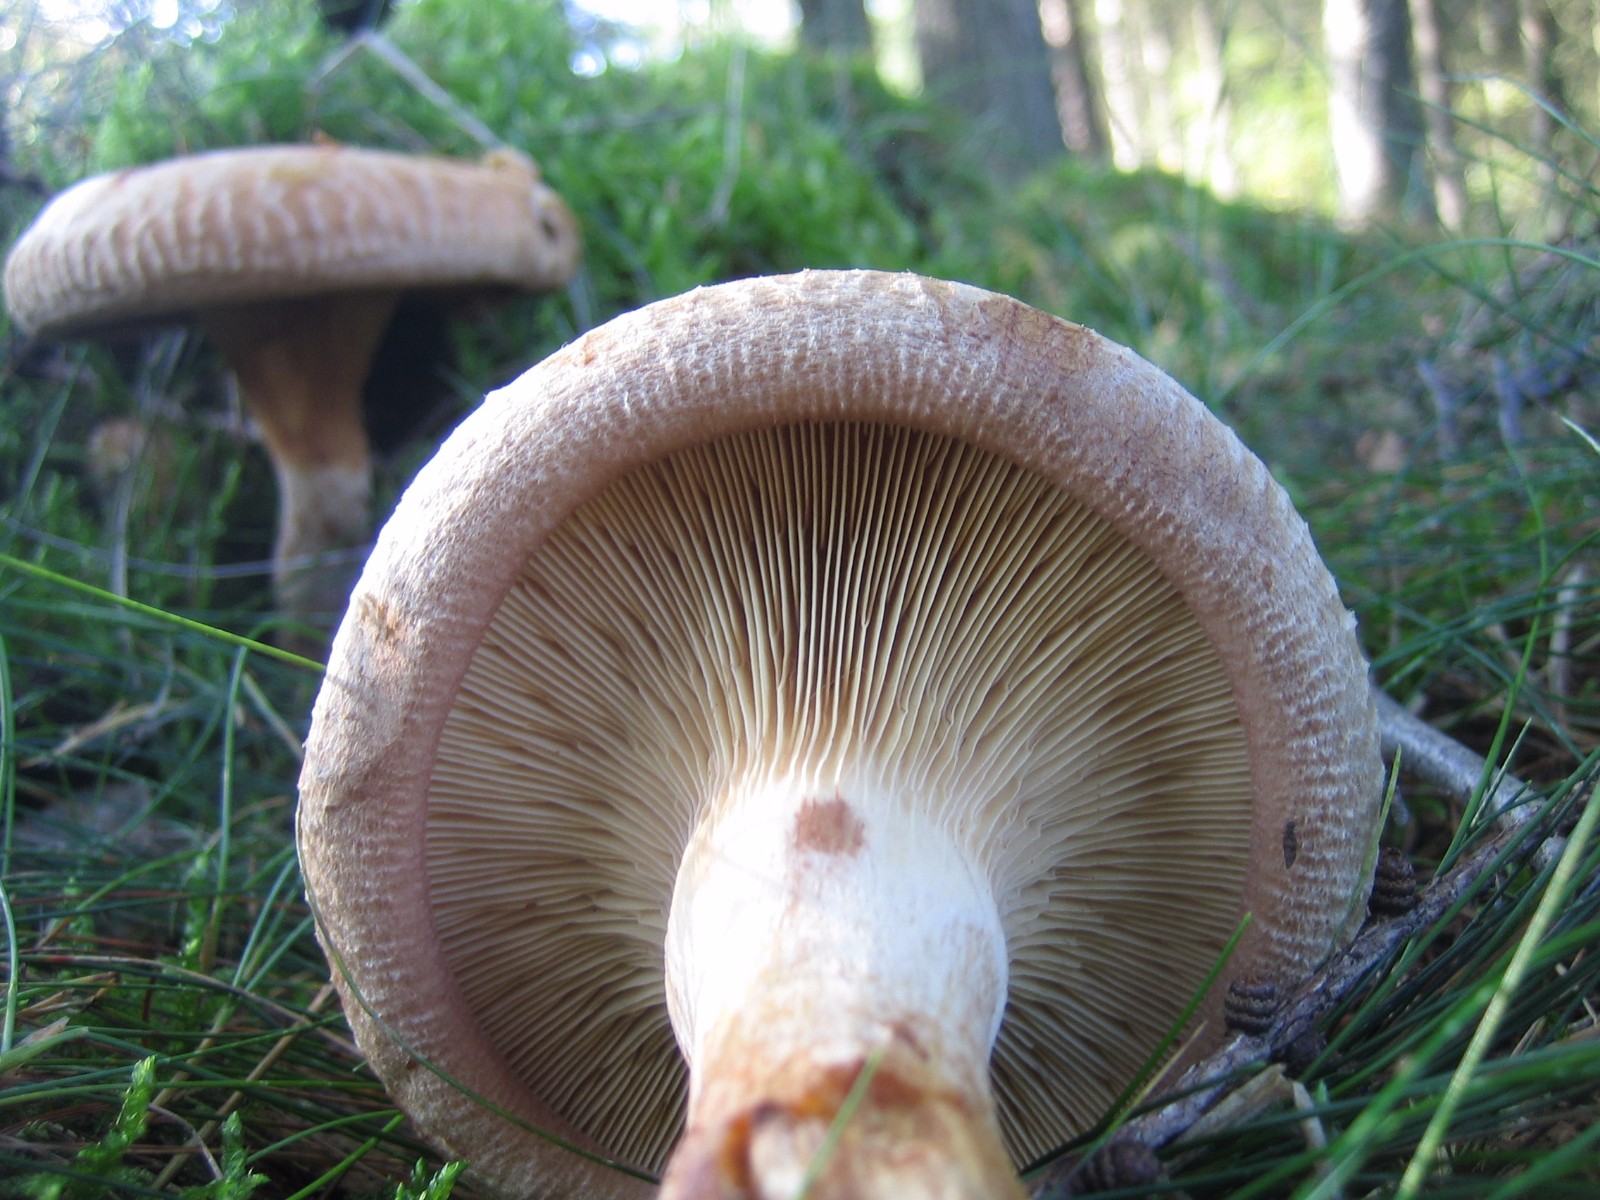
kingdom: Fungi
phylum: Basidiomycota
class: Agaricomycetes
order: Boletales
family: Paxillaceae
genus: Paxillus
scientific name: Paxillus involutus
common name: almindelig netbladhat
